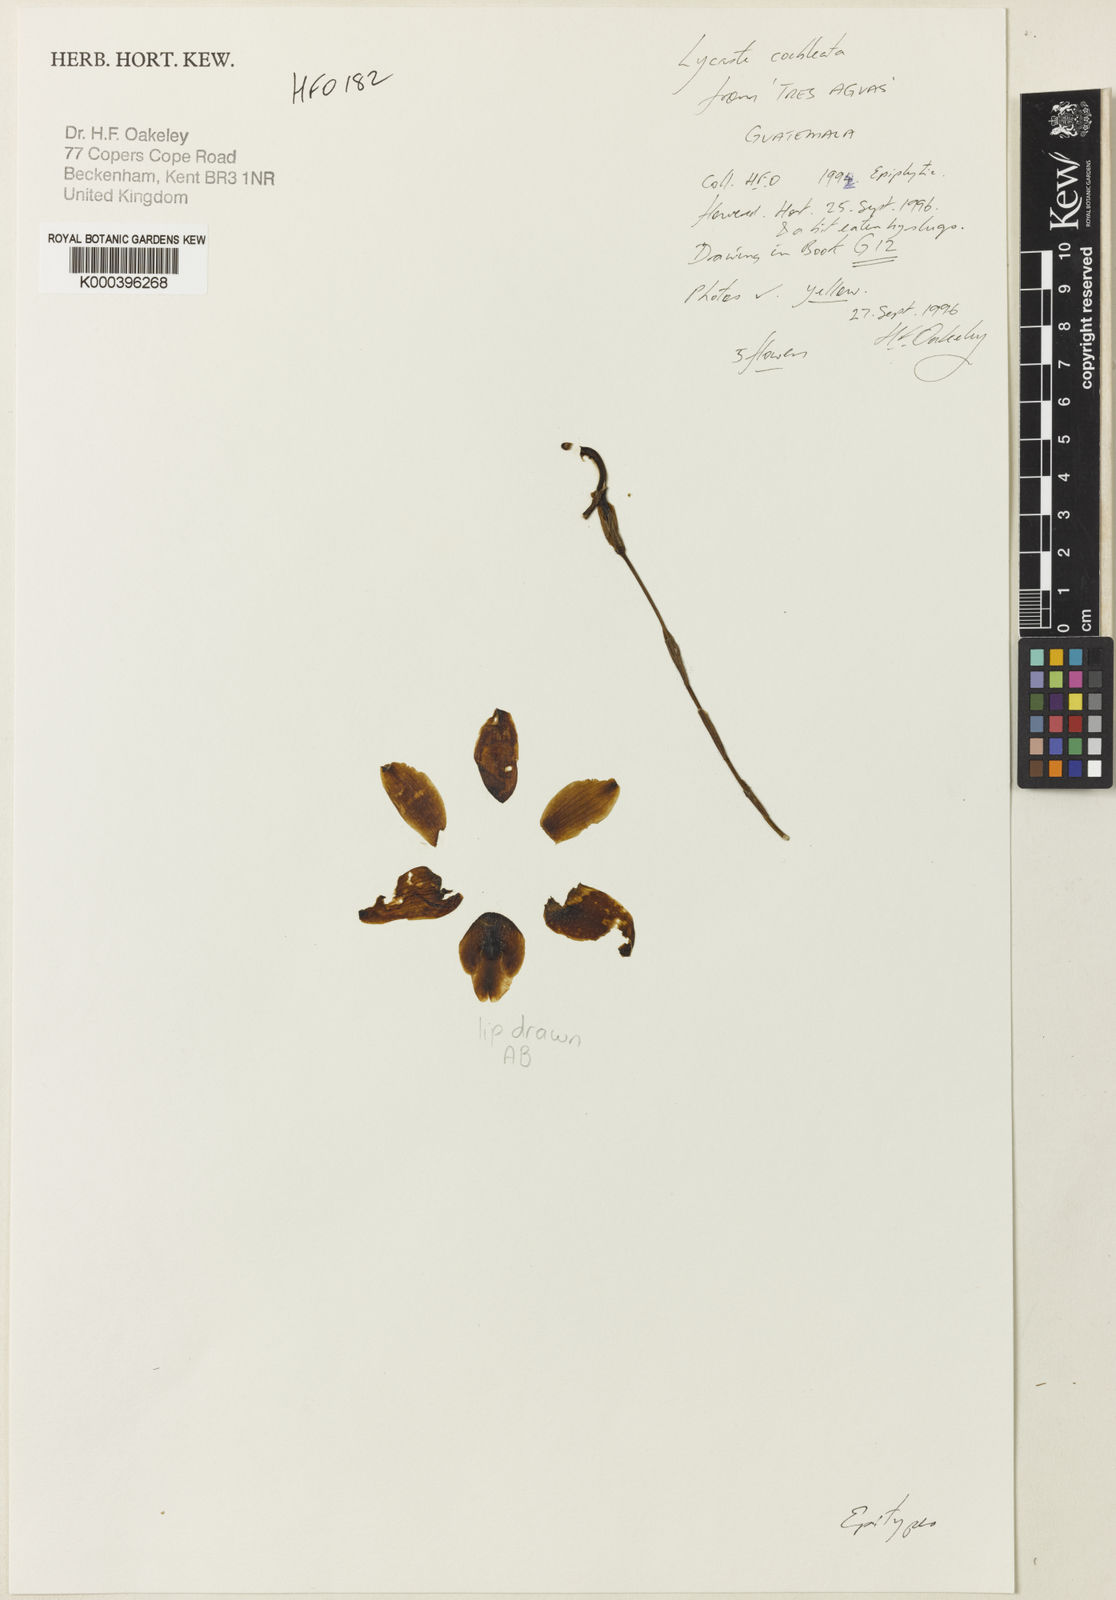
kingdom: Plantae
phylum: Tracheophyta
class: Liliopsida
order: Asparagales
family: Orchidaceae
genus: Lycaste
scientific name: Lycaste cochleata
